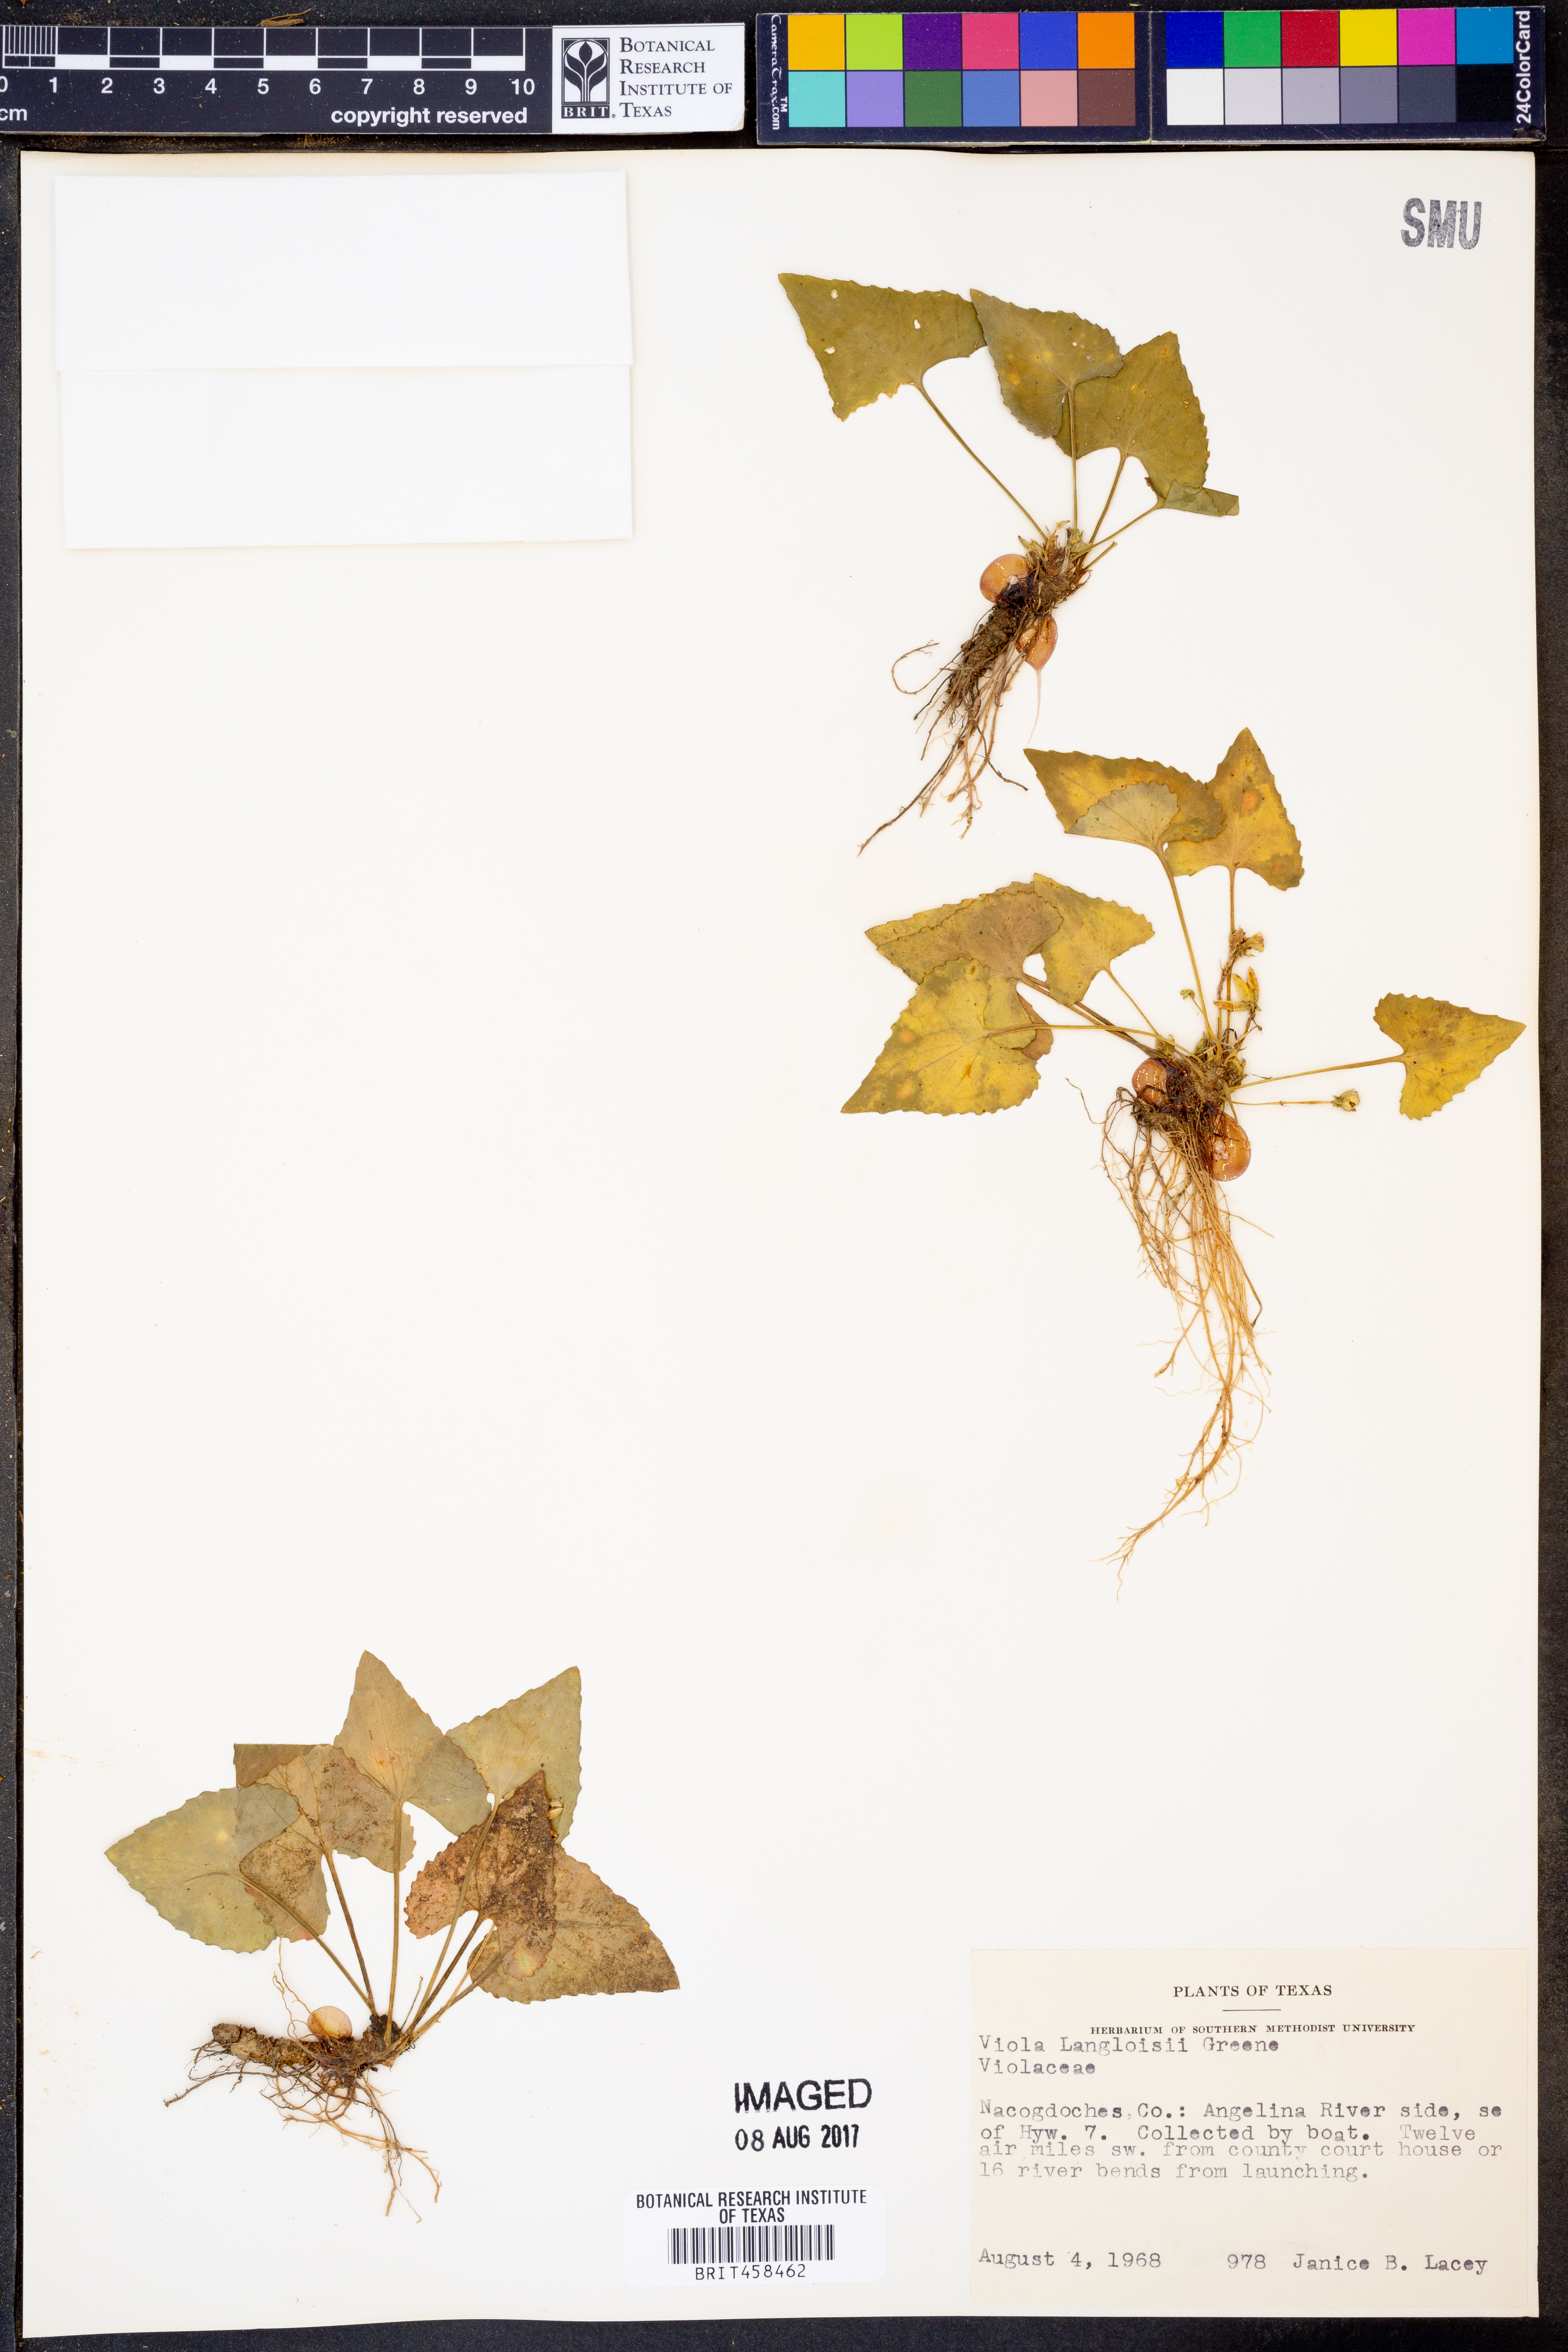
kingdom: Plantae
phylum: Tracheophyta
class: Magnoliopsida
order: Malpighiales
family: Violaceae
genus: Viola
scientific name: Viola langloisii
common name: Langlois' violet
